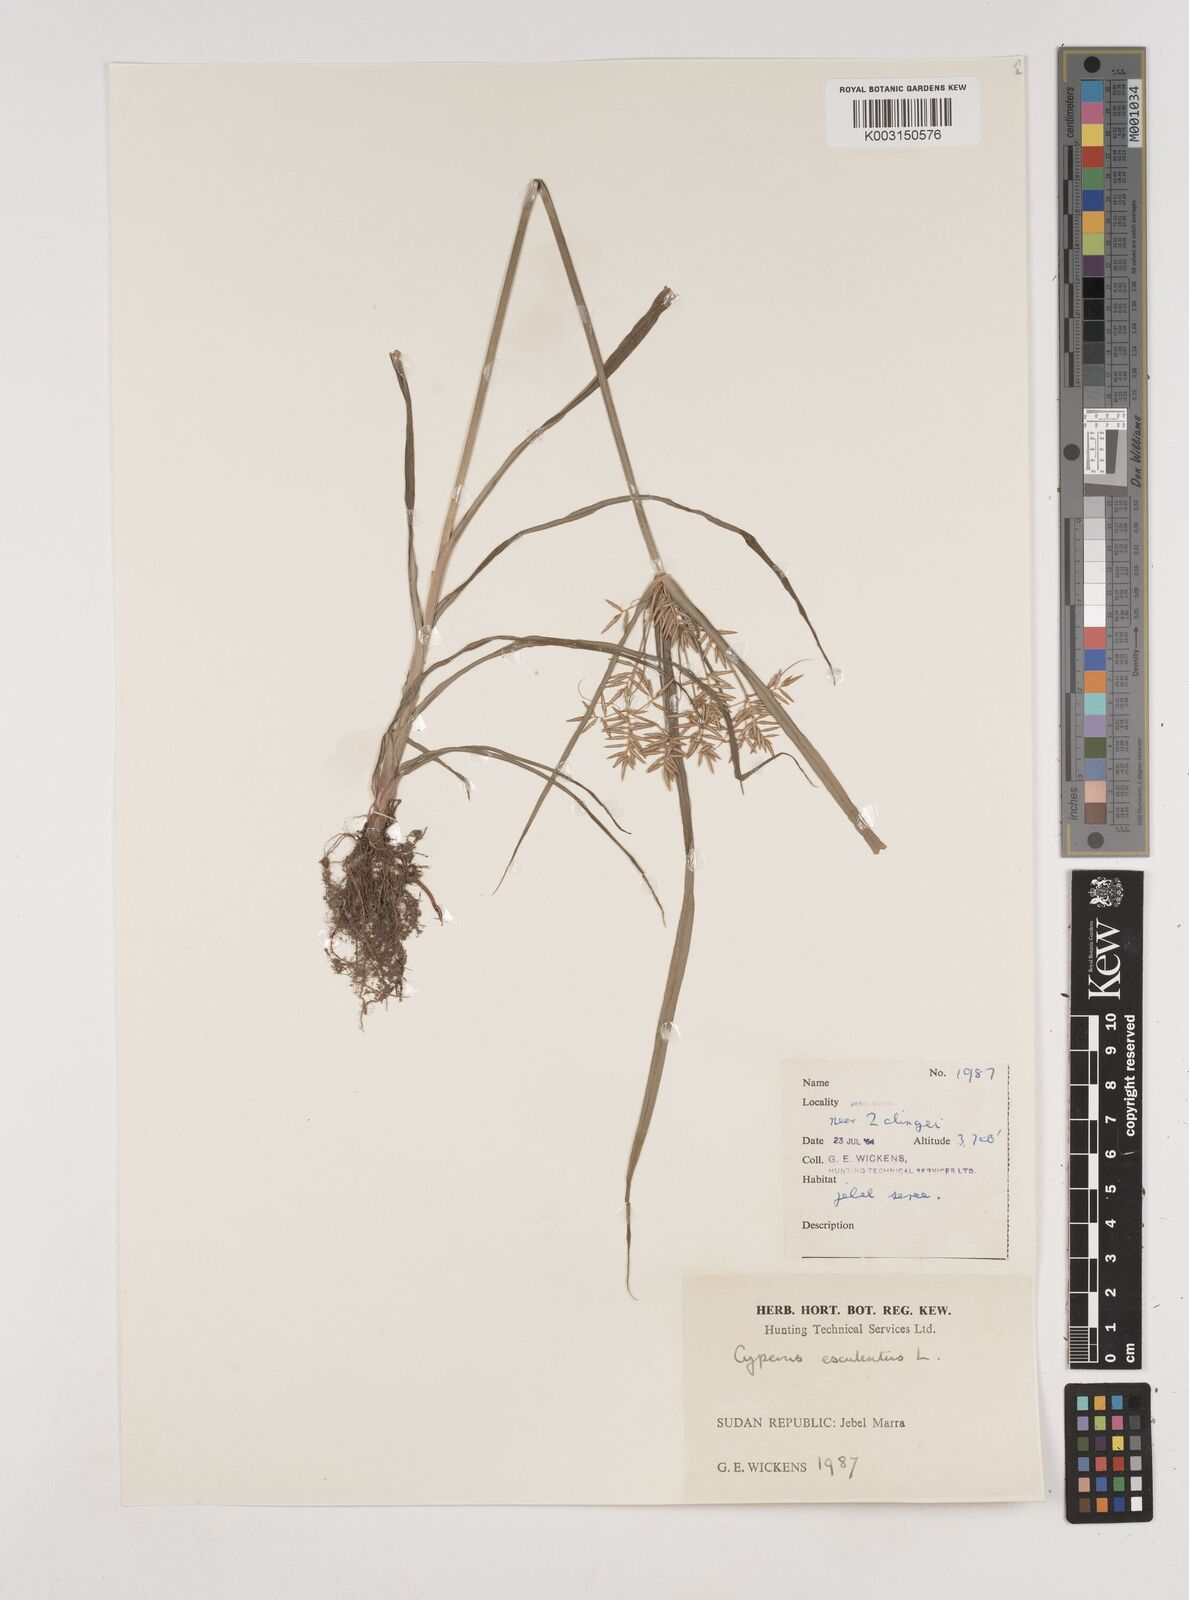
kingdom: Plantae
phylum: Tracheophyta
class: Liliopsida
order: Poales
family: Cyperaceae
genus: Cyperus
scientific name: Cyperus esculentus
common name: Yellow nutsedge
